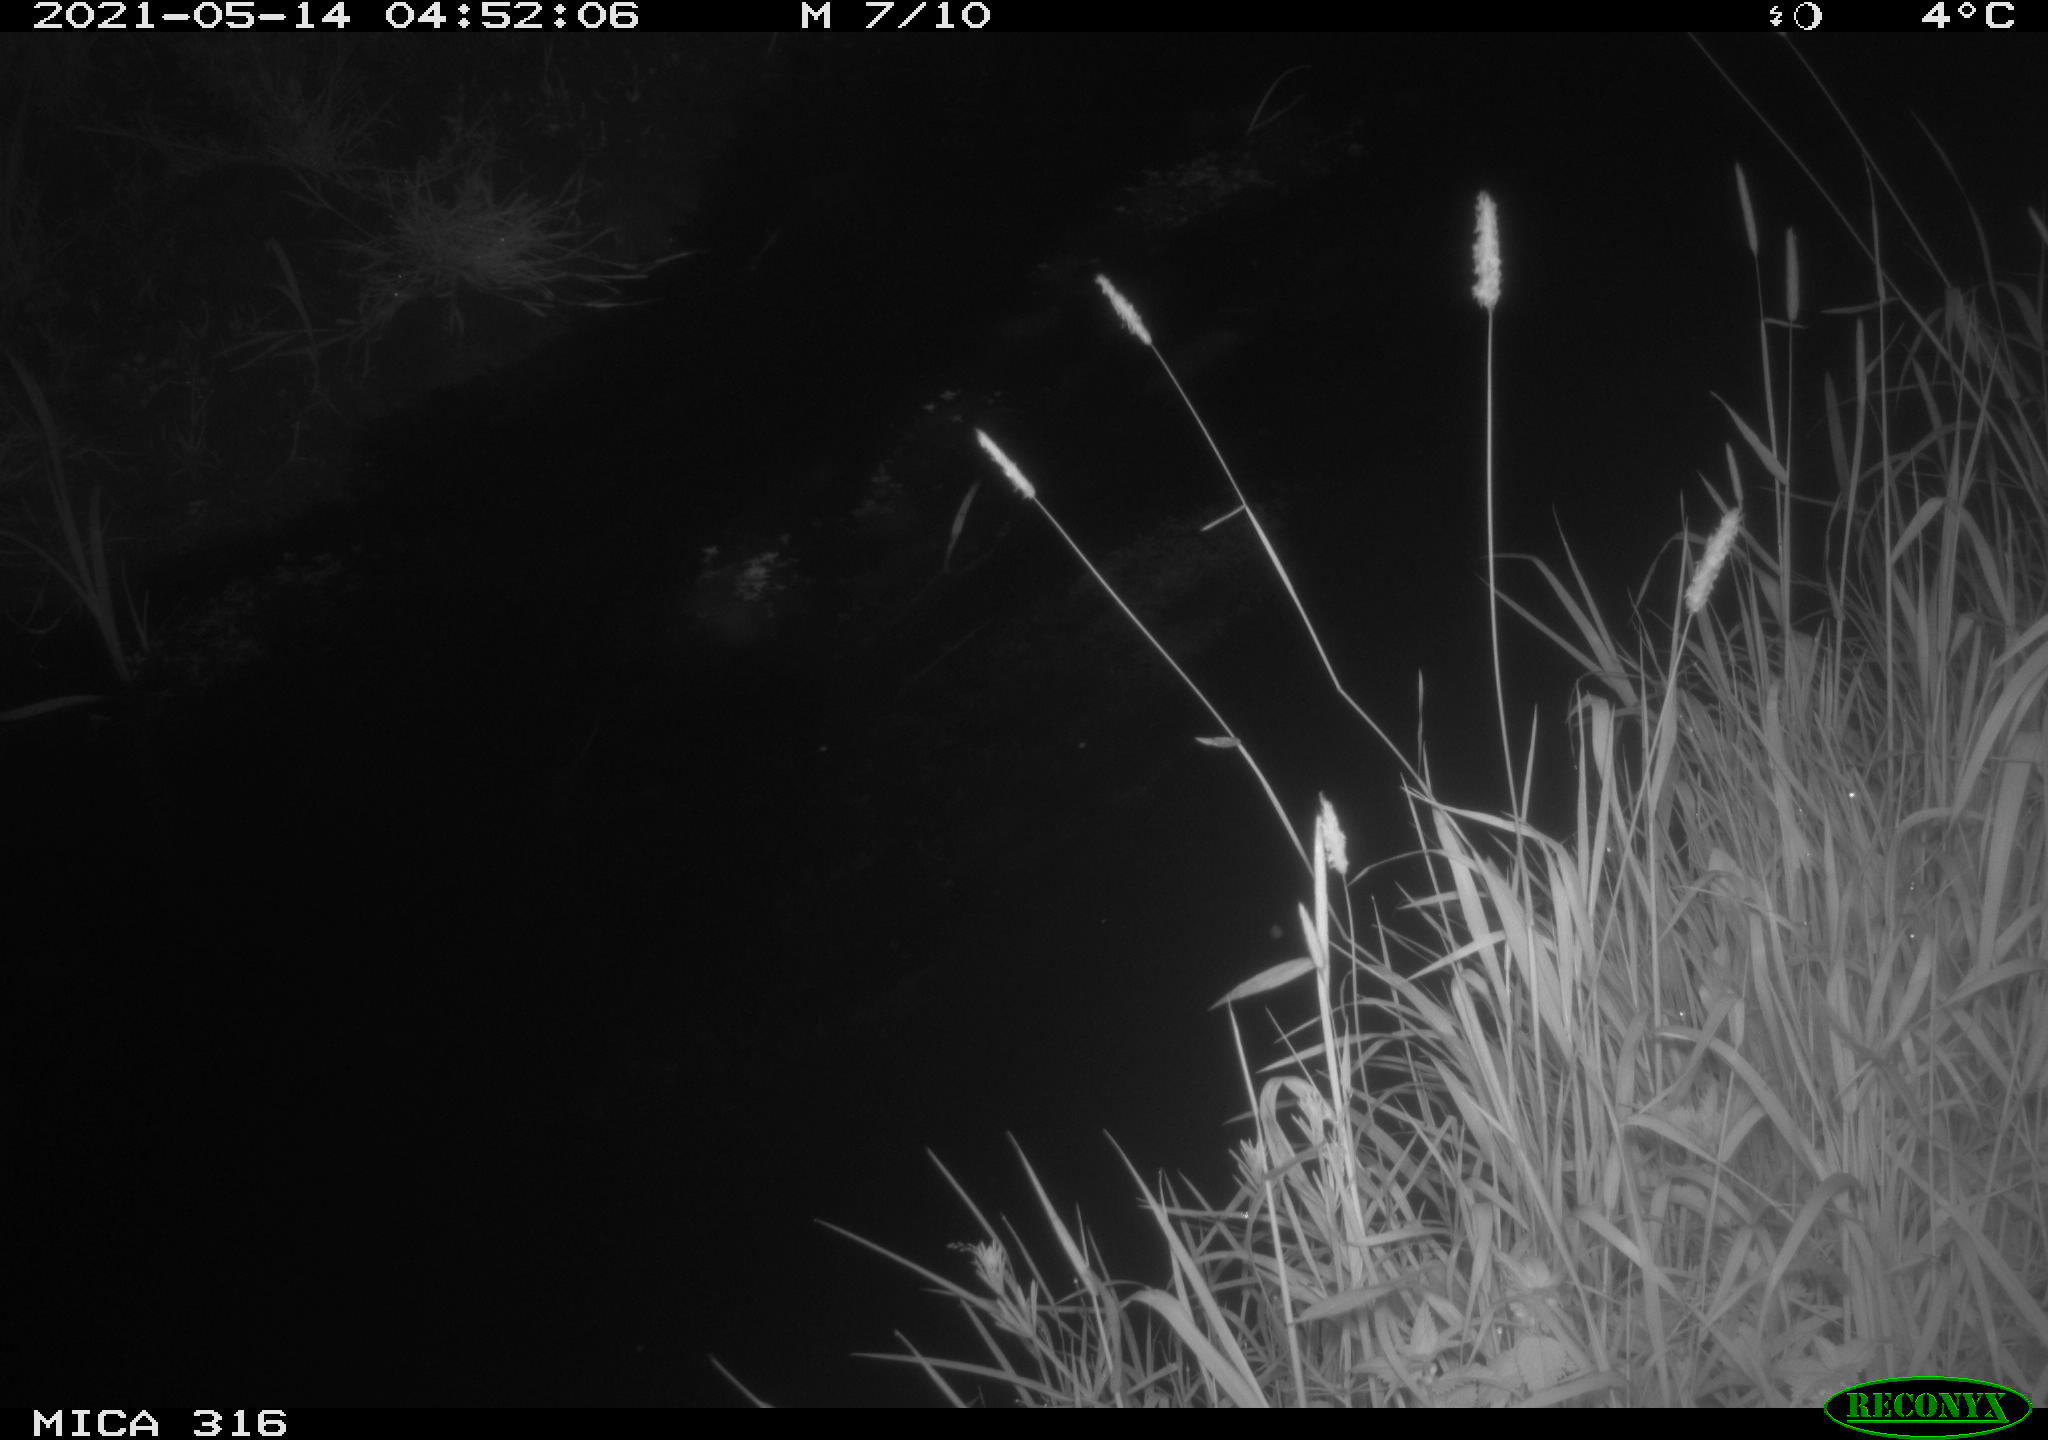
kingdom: Animalia
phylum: Chordata
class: Aves
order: Anseriformes
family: Anatidae
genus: Anas
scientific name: Anas platyrhynchos
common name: Mallard
